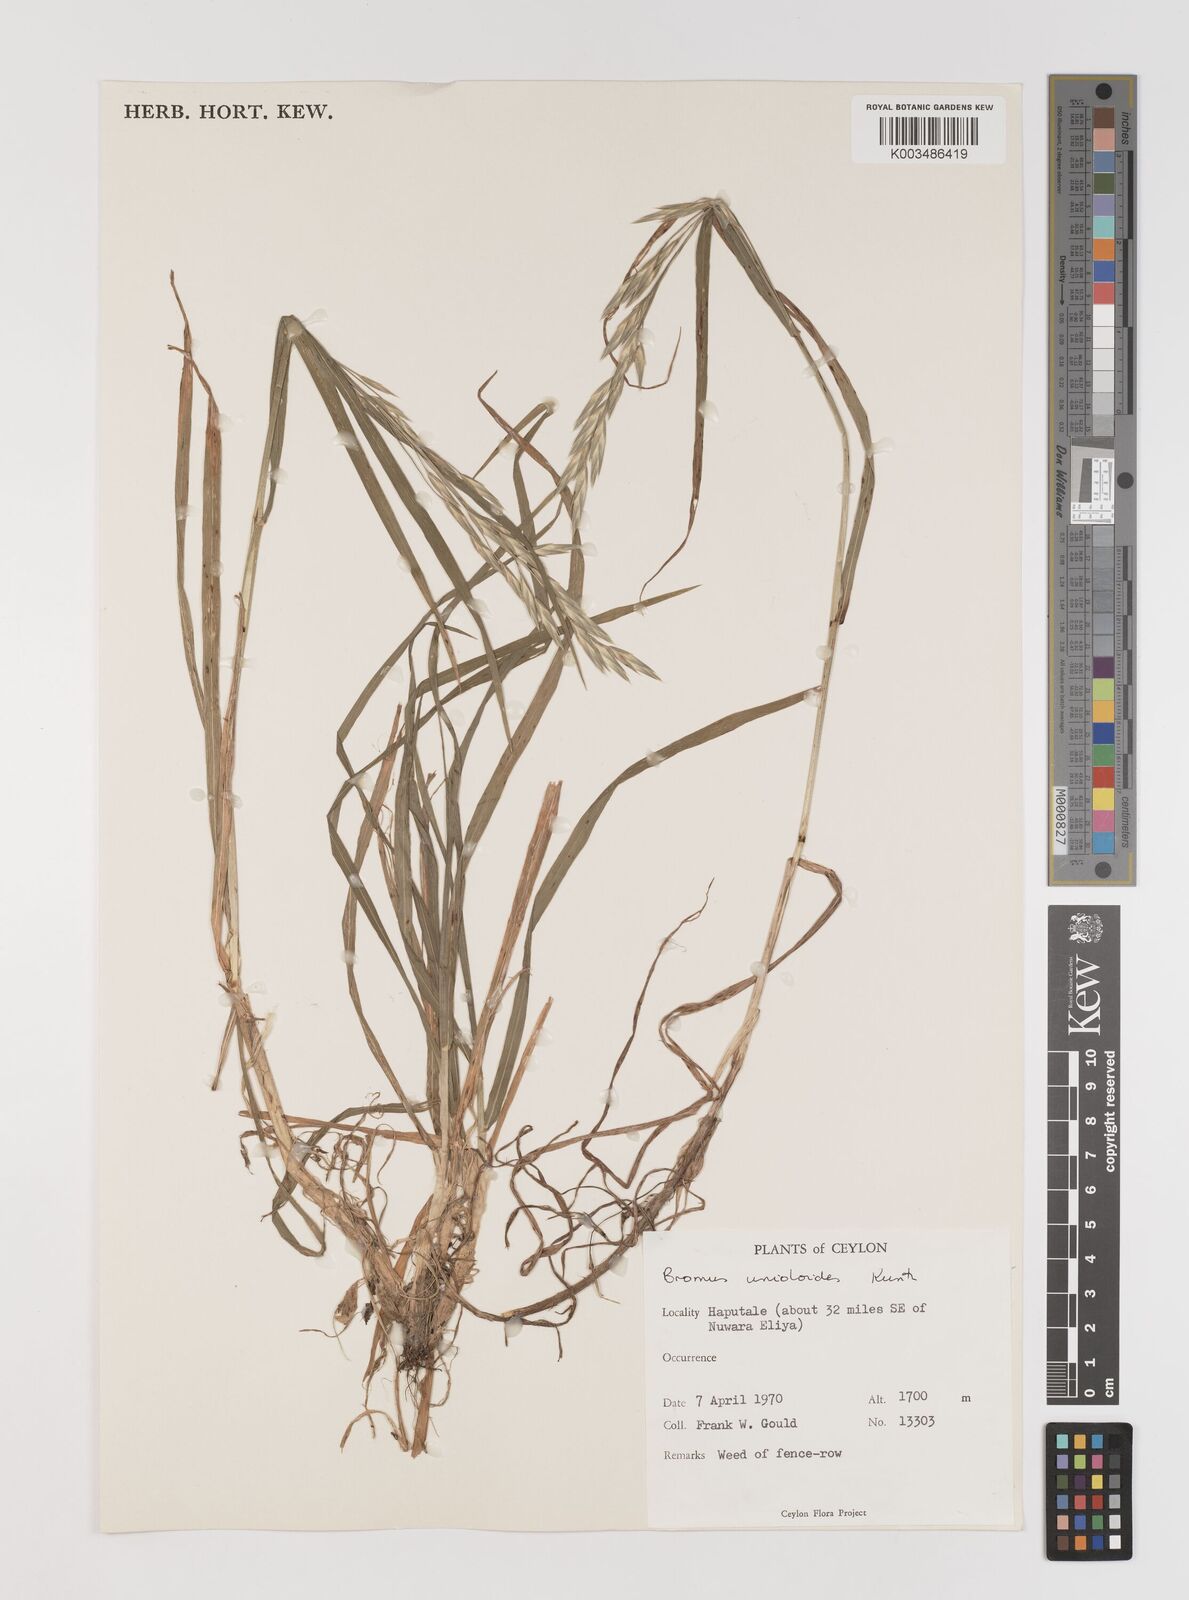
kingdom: Plantae
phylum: Tracheophyta
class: Liliopsida
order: Poales
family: Poaceae
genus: Bromus
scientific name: Bromus catharticus
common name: Rescuegrass
